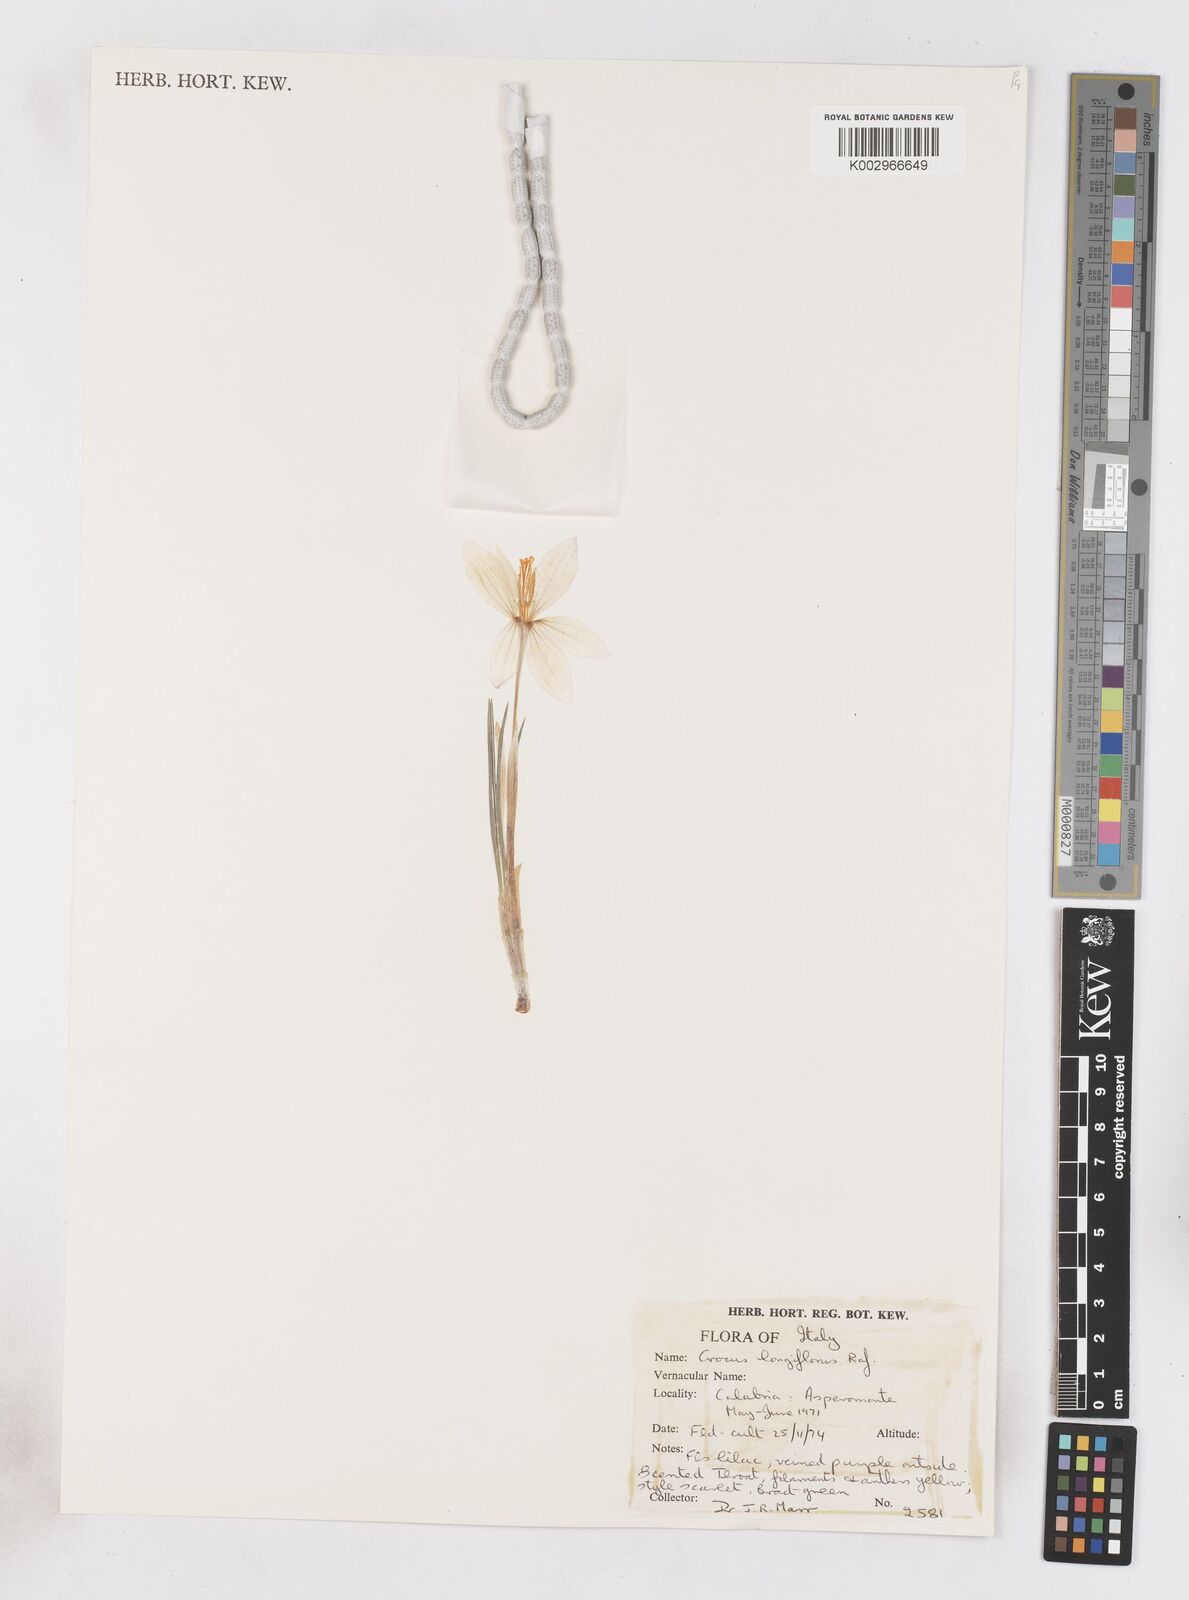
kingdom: Plantae
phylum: Tracheophyta
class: Liliopsida
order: Asparagales
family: Iridaceae
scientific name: Iridaceae
